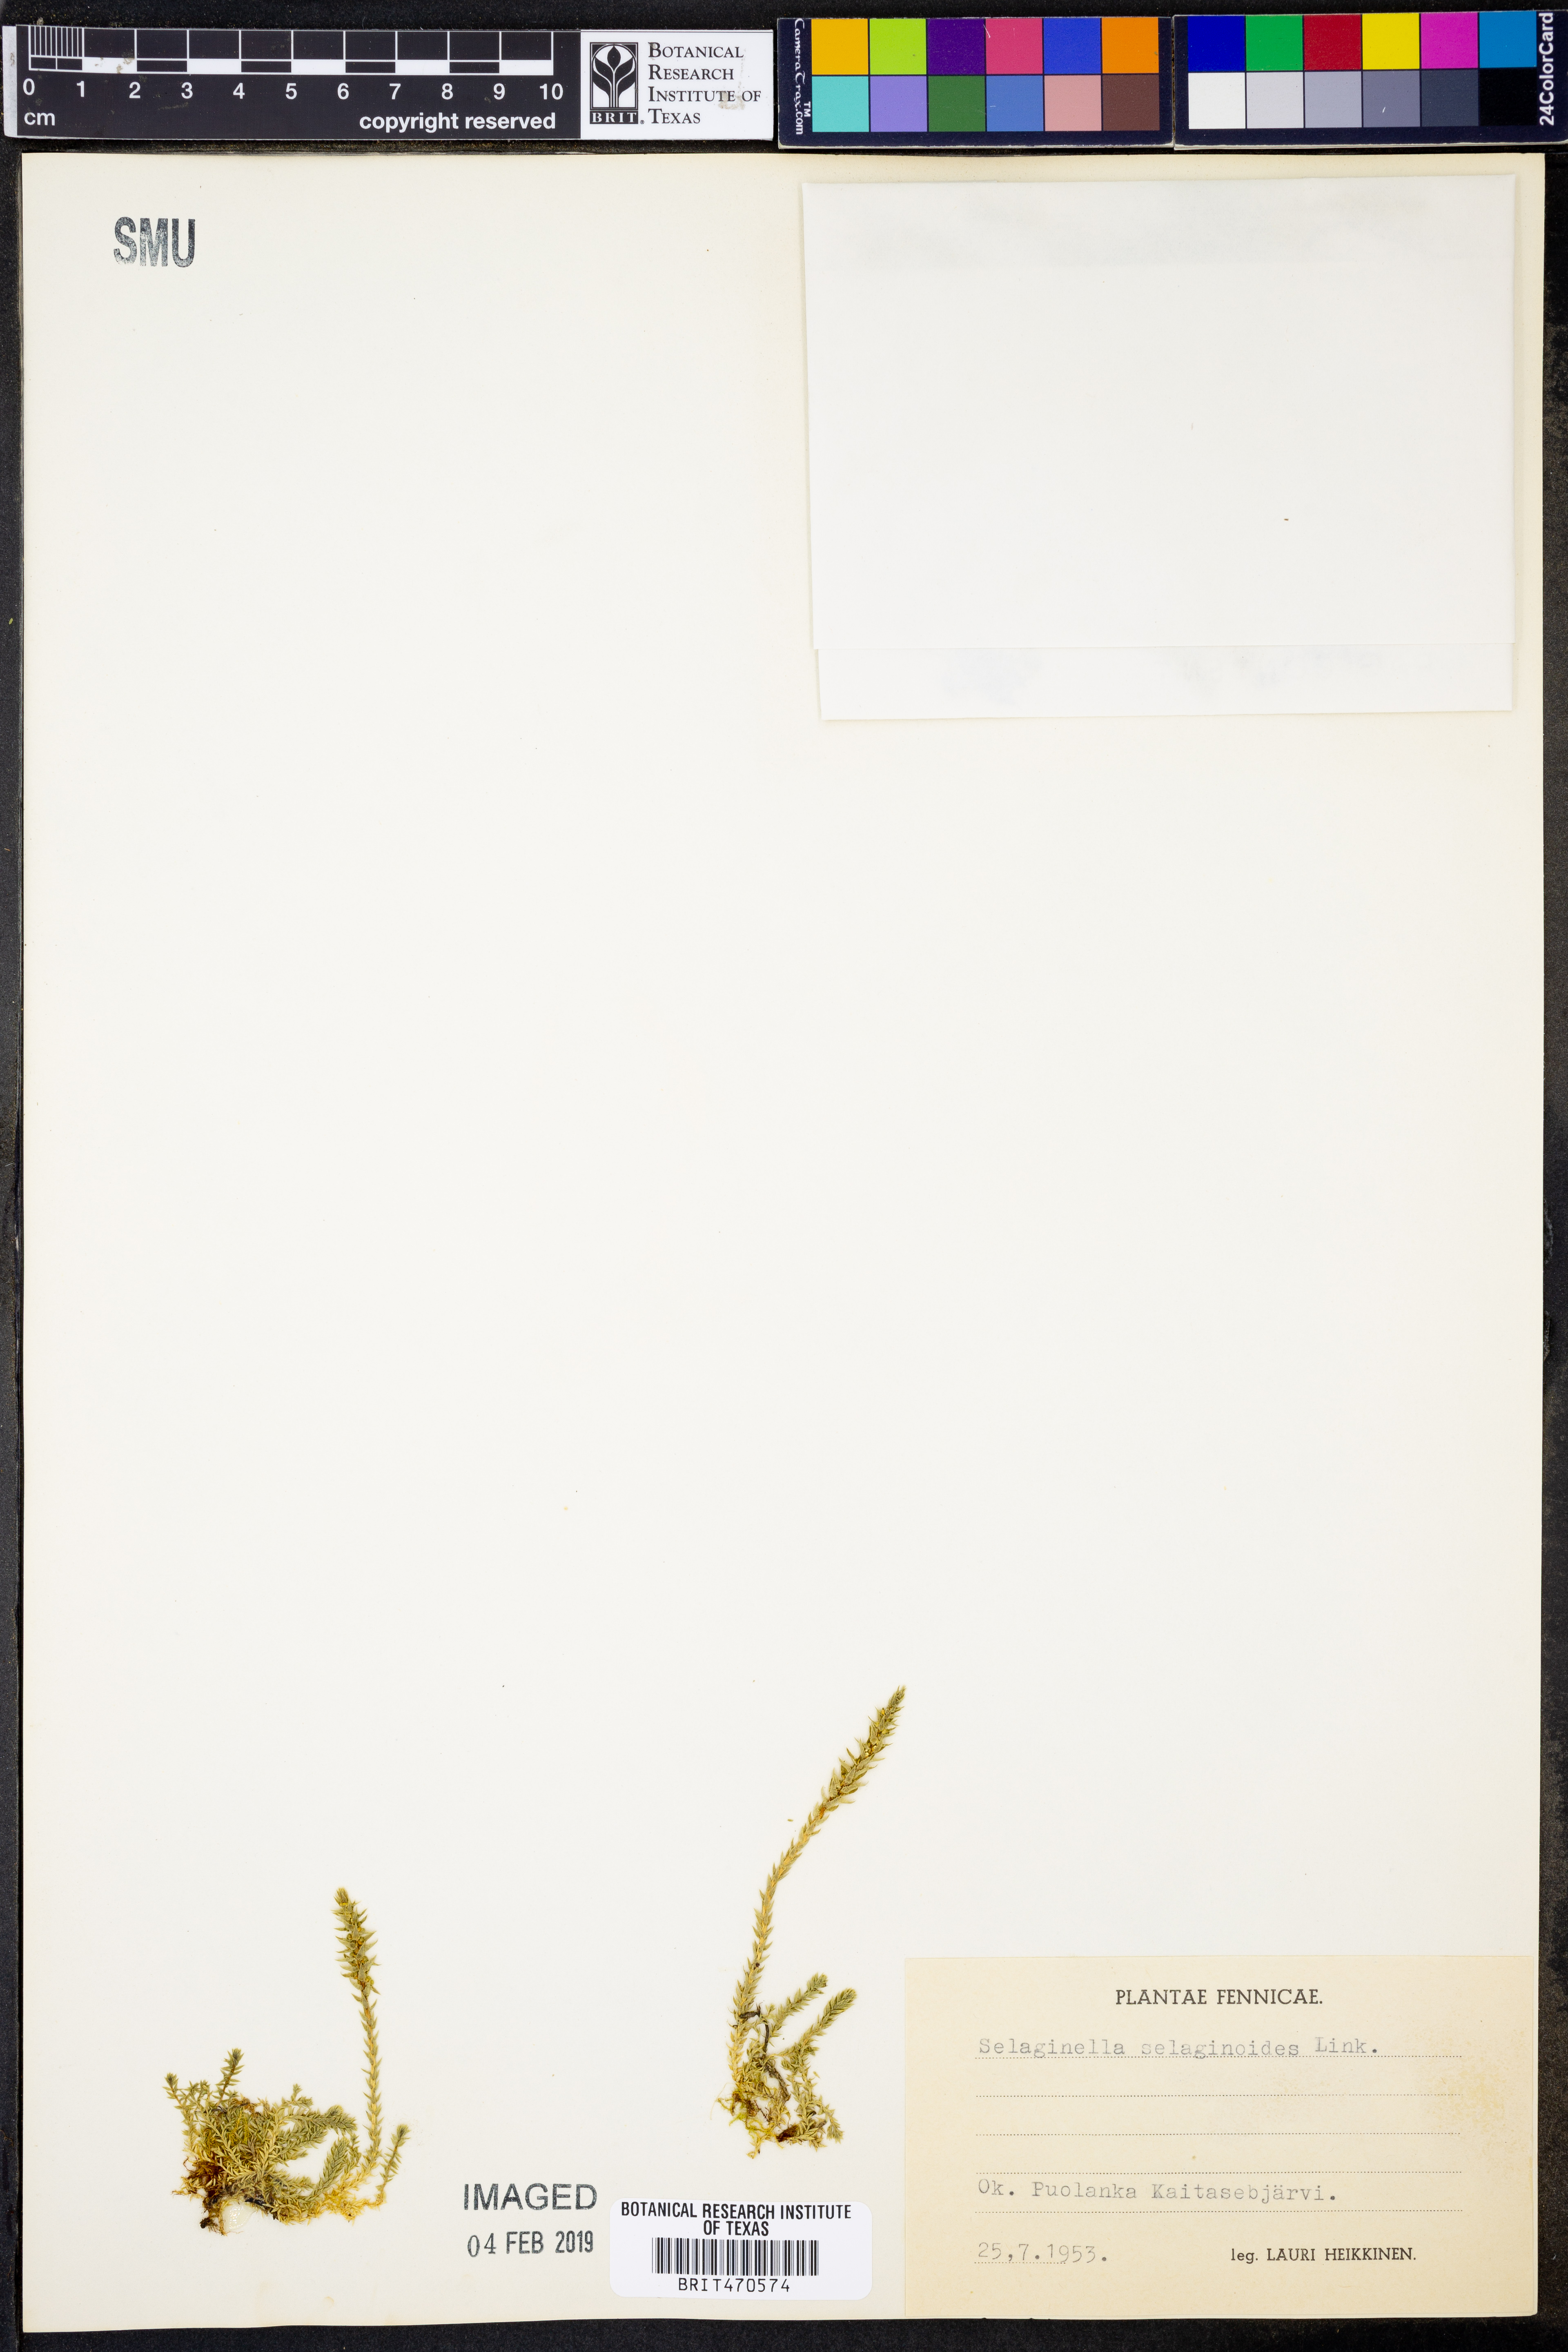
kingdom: Plantae
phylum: Tracheophyta
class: Lycopodiopsida
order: Selaginellales
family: Selaginellaceae
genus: Selaginella
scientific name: Selaginella selaginoides
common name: Prickly mountain-moss
